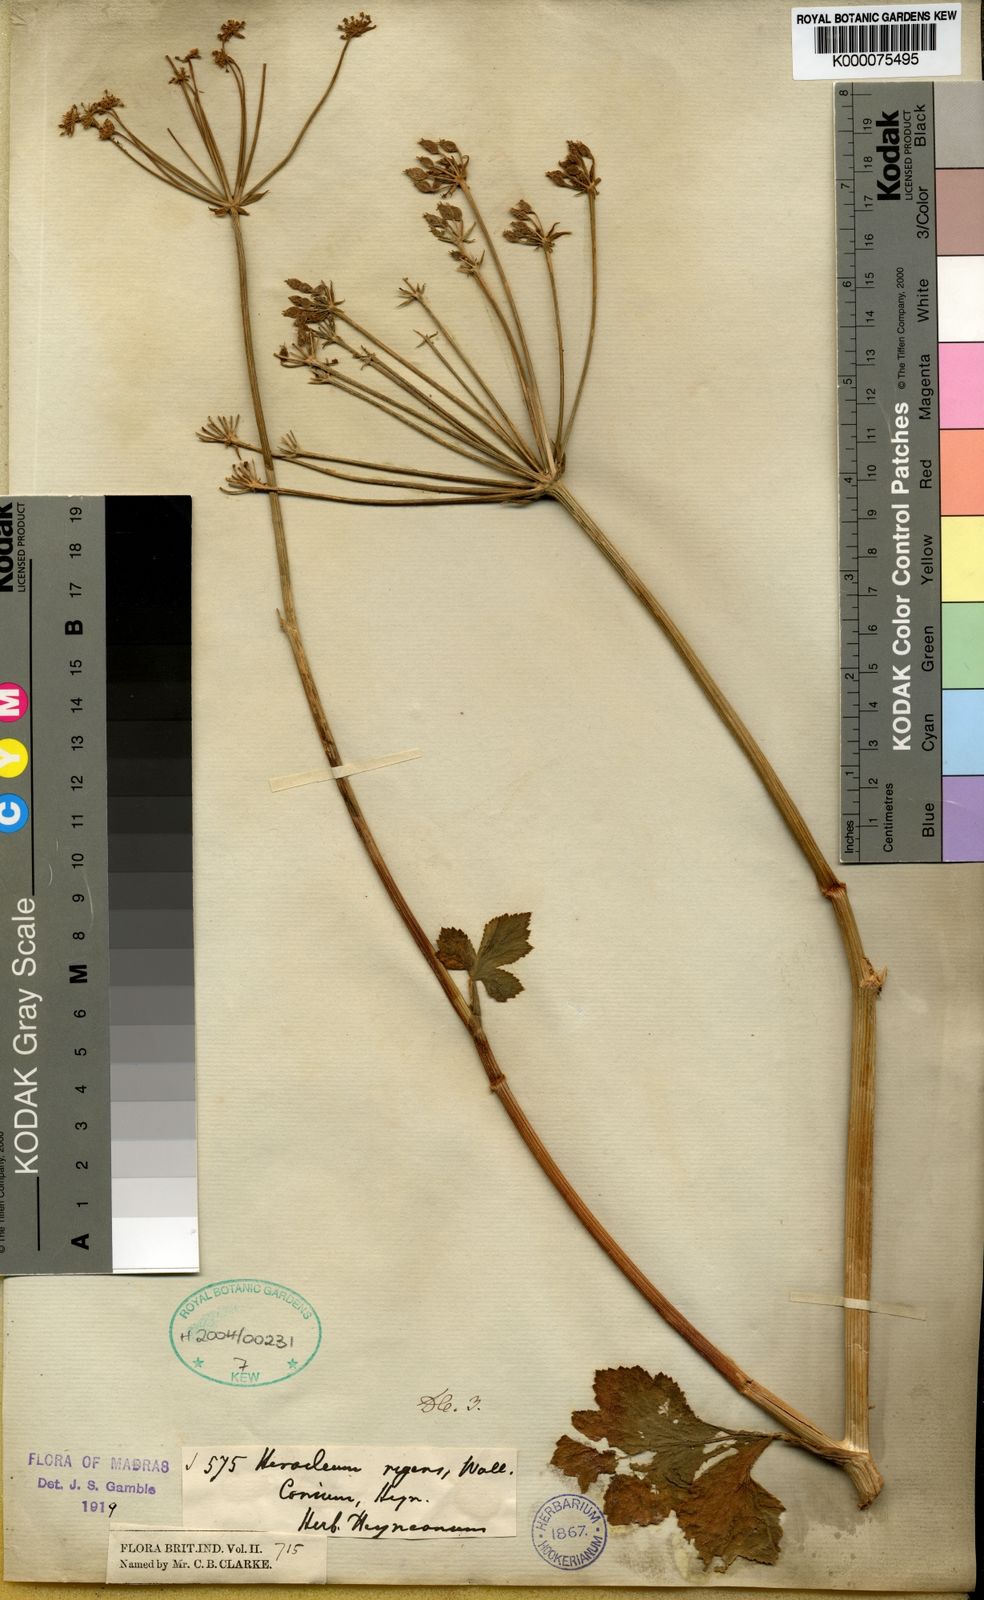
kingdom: Plantae
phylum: Tracheophyta
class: Magnoliopsida
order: Apiales
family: Apiaceae
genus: Heracleum
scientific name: Heracleum
